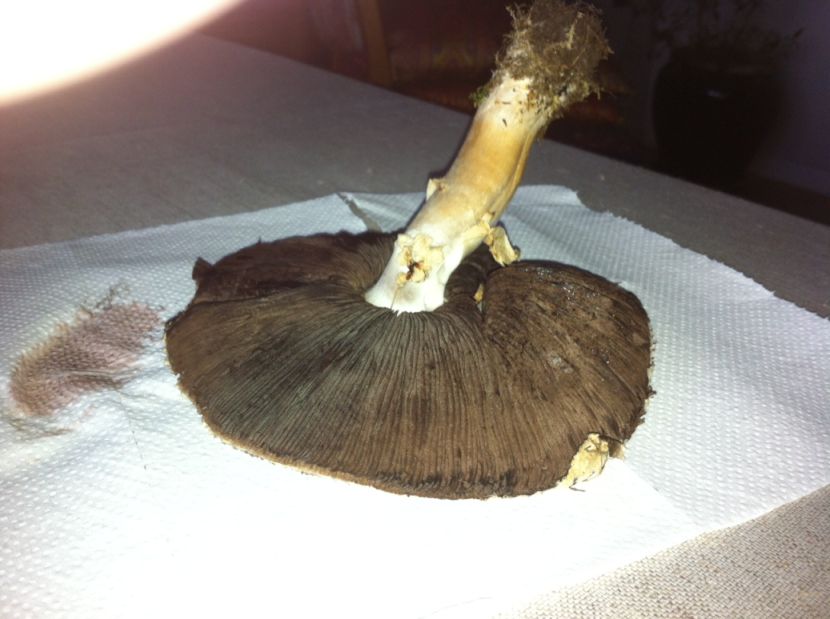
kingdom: Fungi
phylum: Basidiomycota
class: Agaricomycetes
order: Agaricales
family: Agaricaceae
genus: Agaricus
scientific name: Agaricus augustus
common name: prægtig champignon
